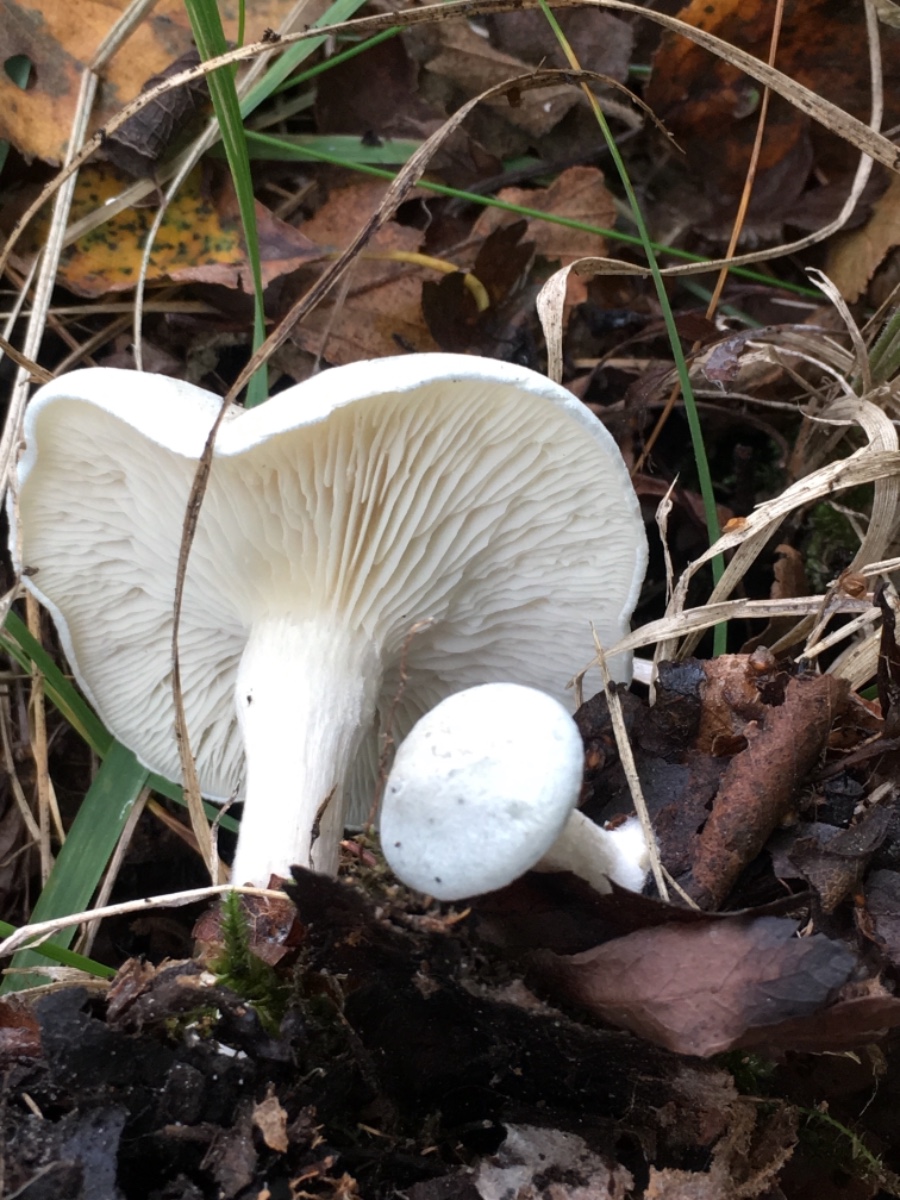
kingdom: Fungi
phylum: Basidiomycota
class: Agaricomycetes
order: Agaricales
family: Tricholomataceae
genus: Clitocybe
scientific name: Clitocybe odora
